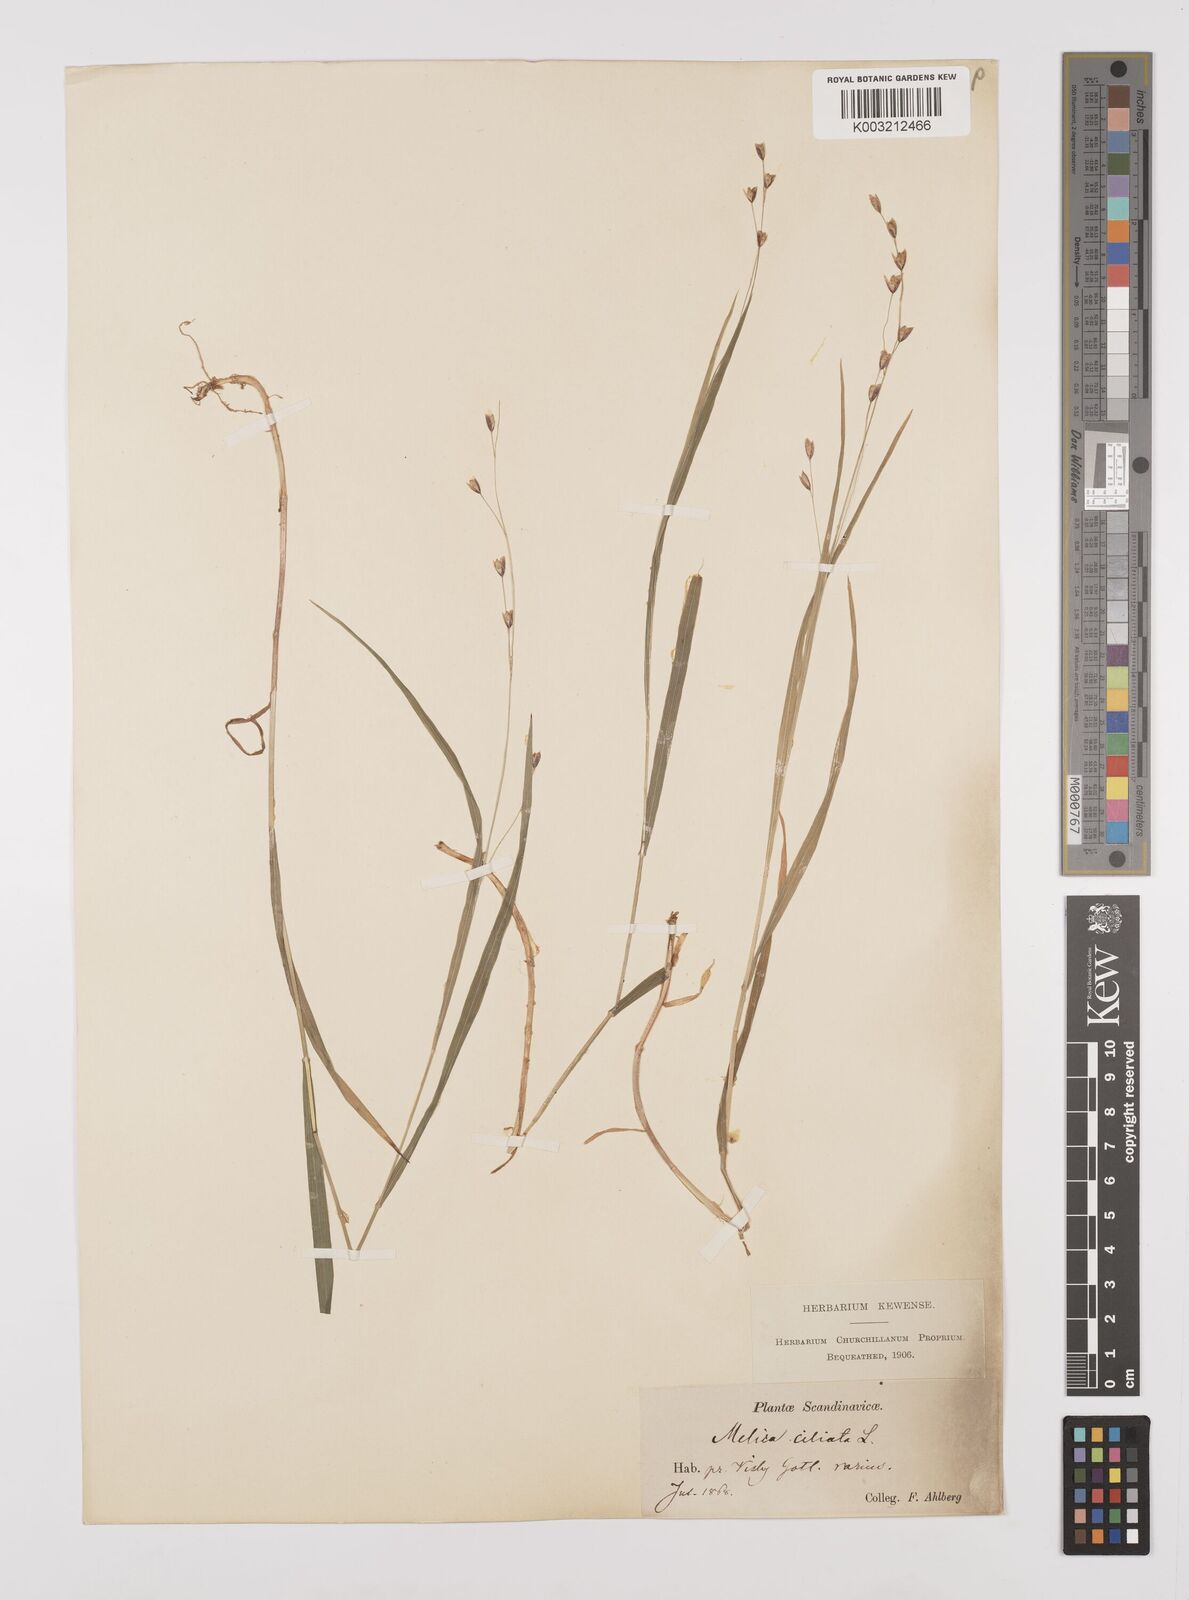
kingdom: Plantae
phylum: Tracheophyta
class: Liliopsida
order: Poales
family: Poaceae
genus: Melica
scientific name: Melica uniflora
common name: Wood melick
